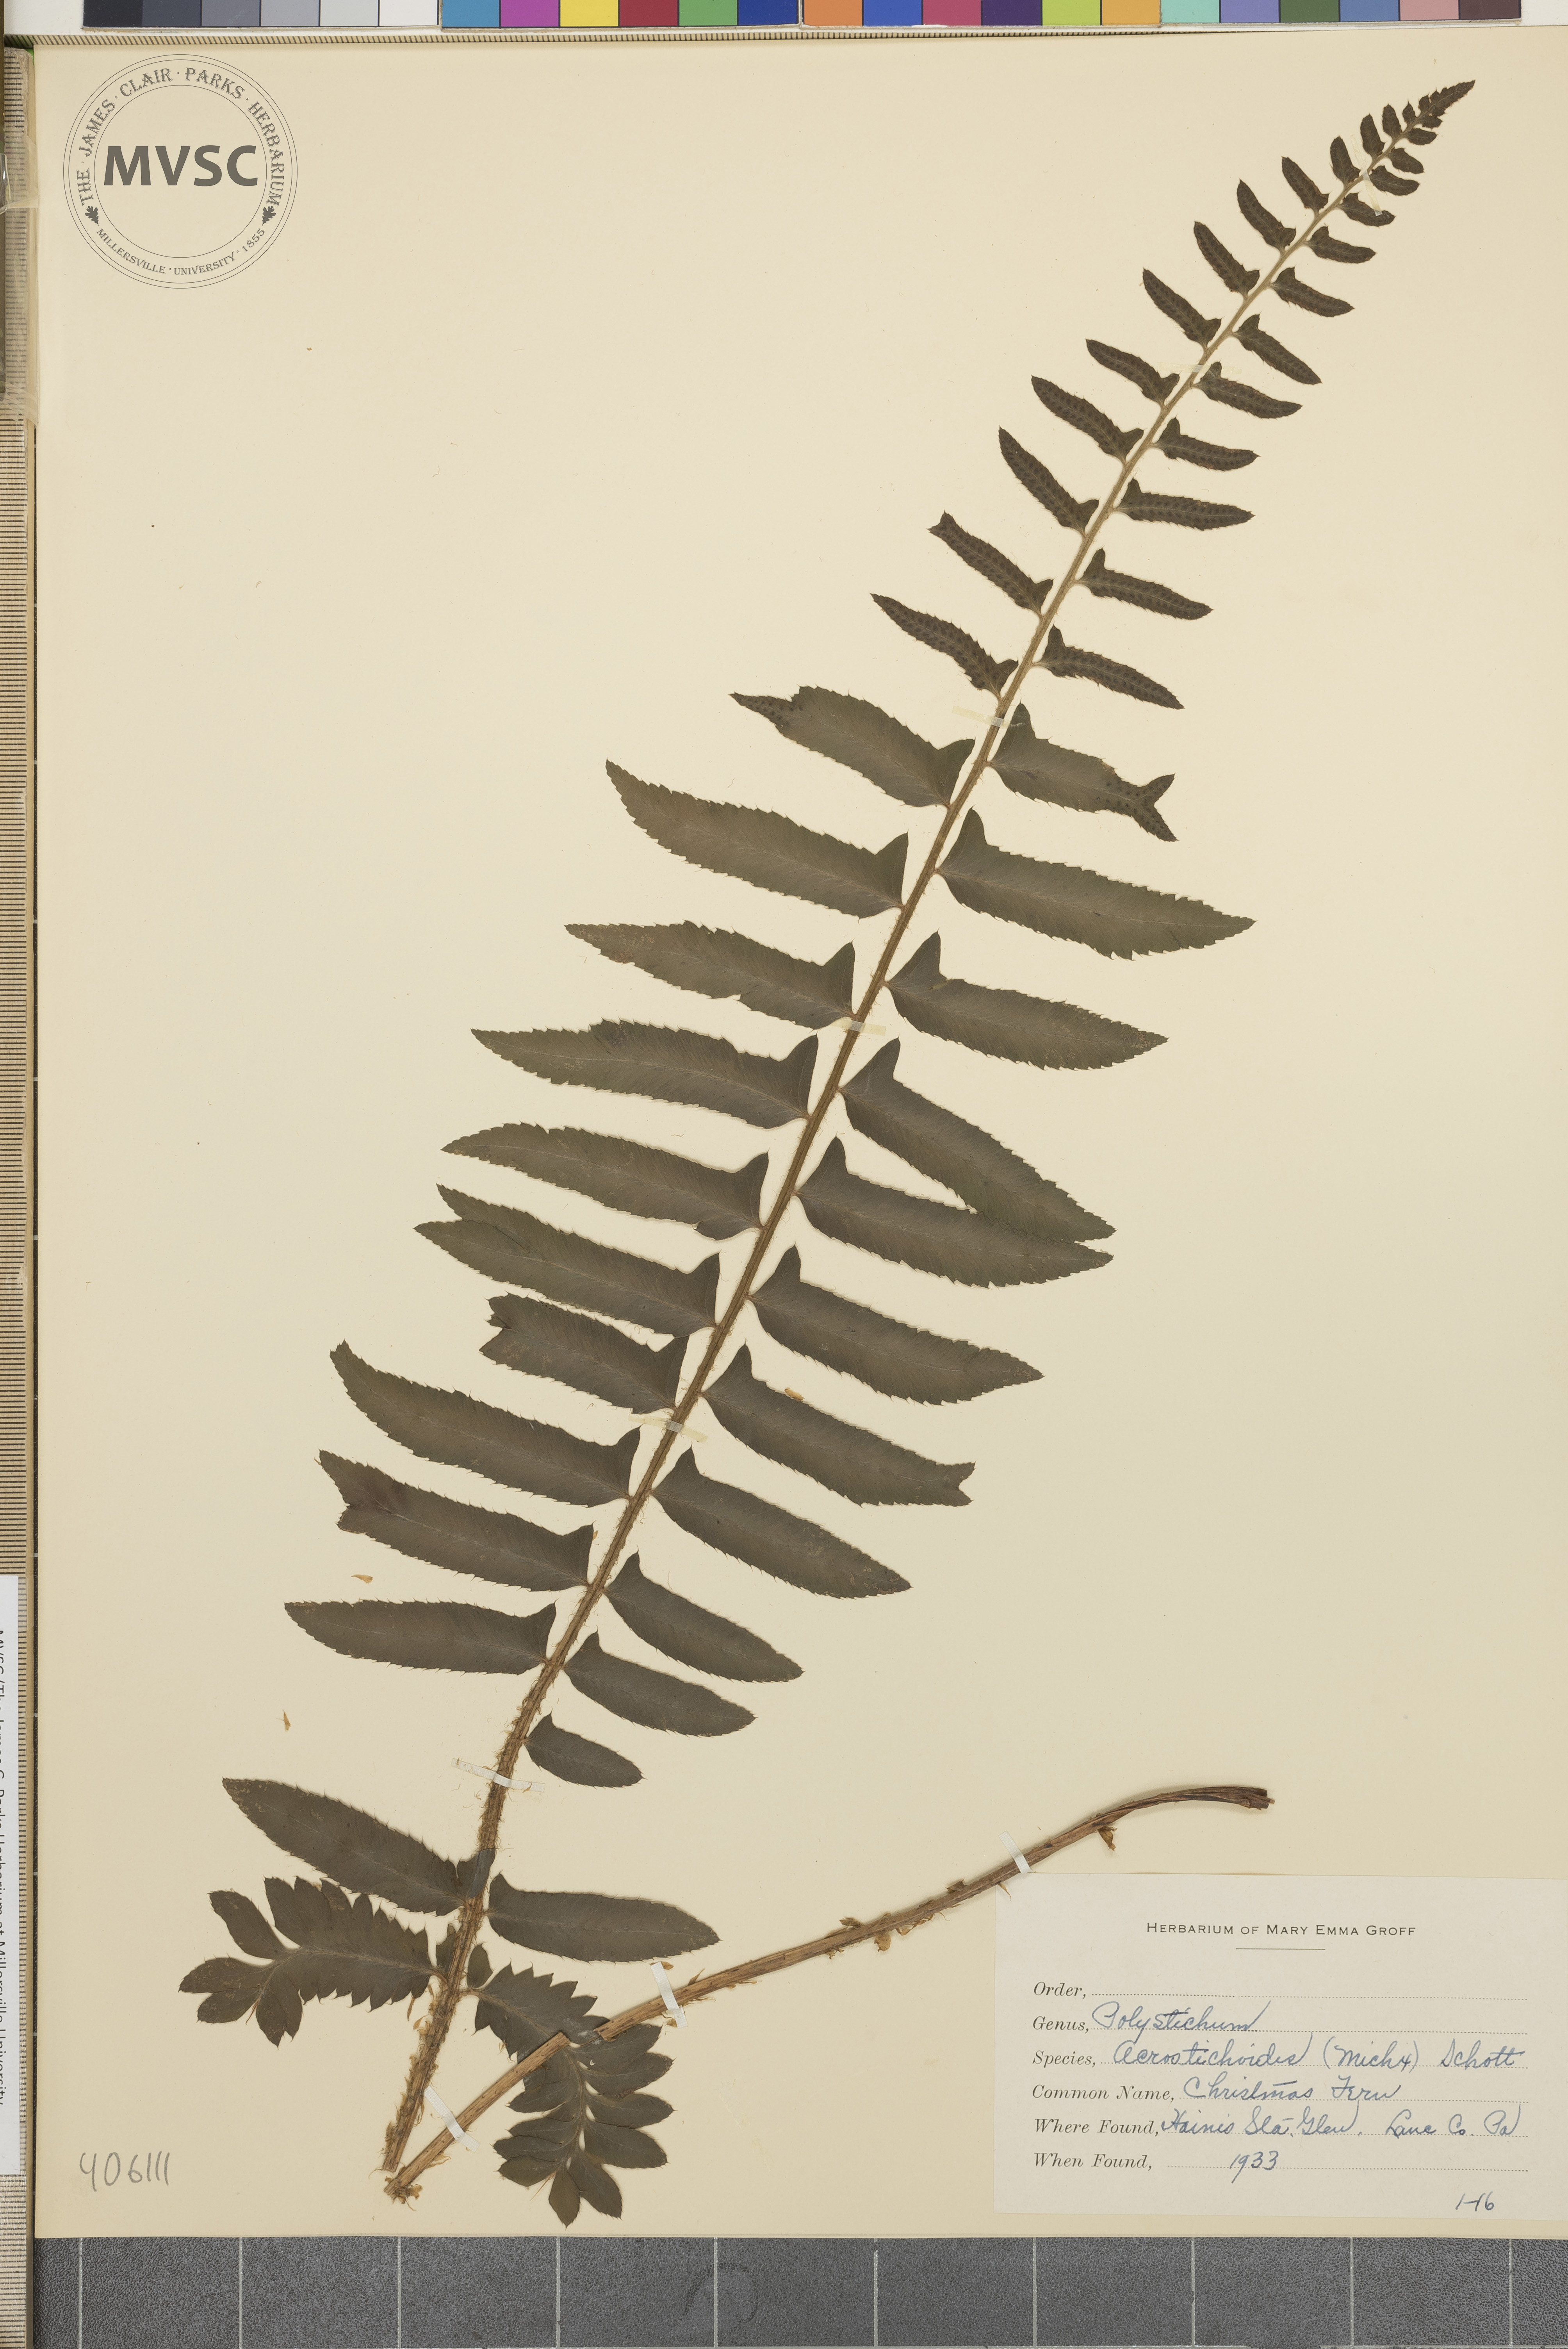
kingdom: Plantae
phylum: Tracheophyta
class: Polypodiopsida
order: Polypodiales
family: Dryopteridaceae
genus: Polystichum
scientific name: Polystichum acrostichoides
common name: Christmas fern
